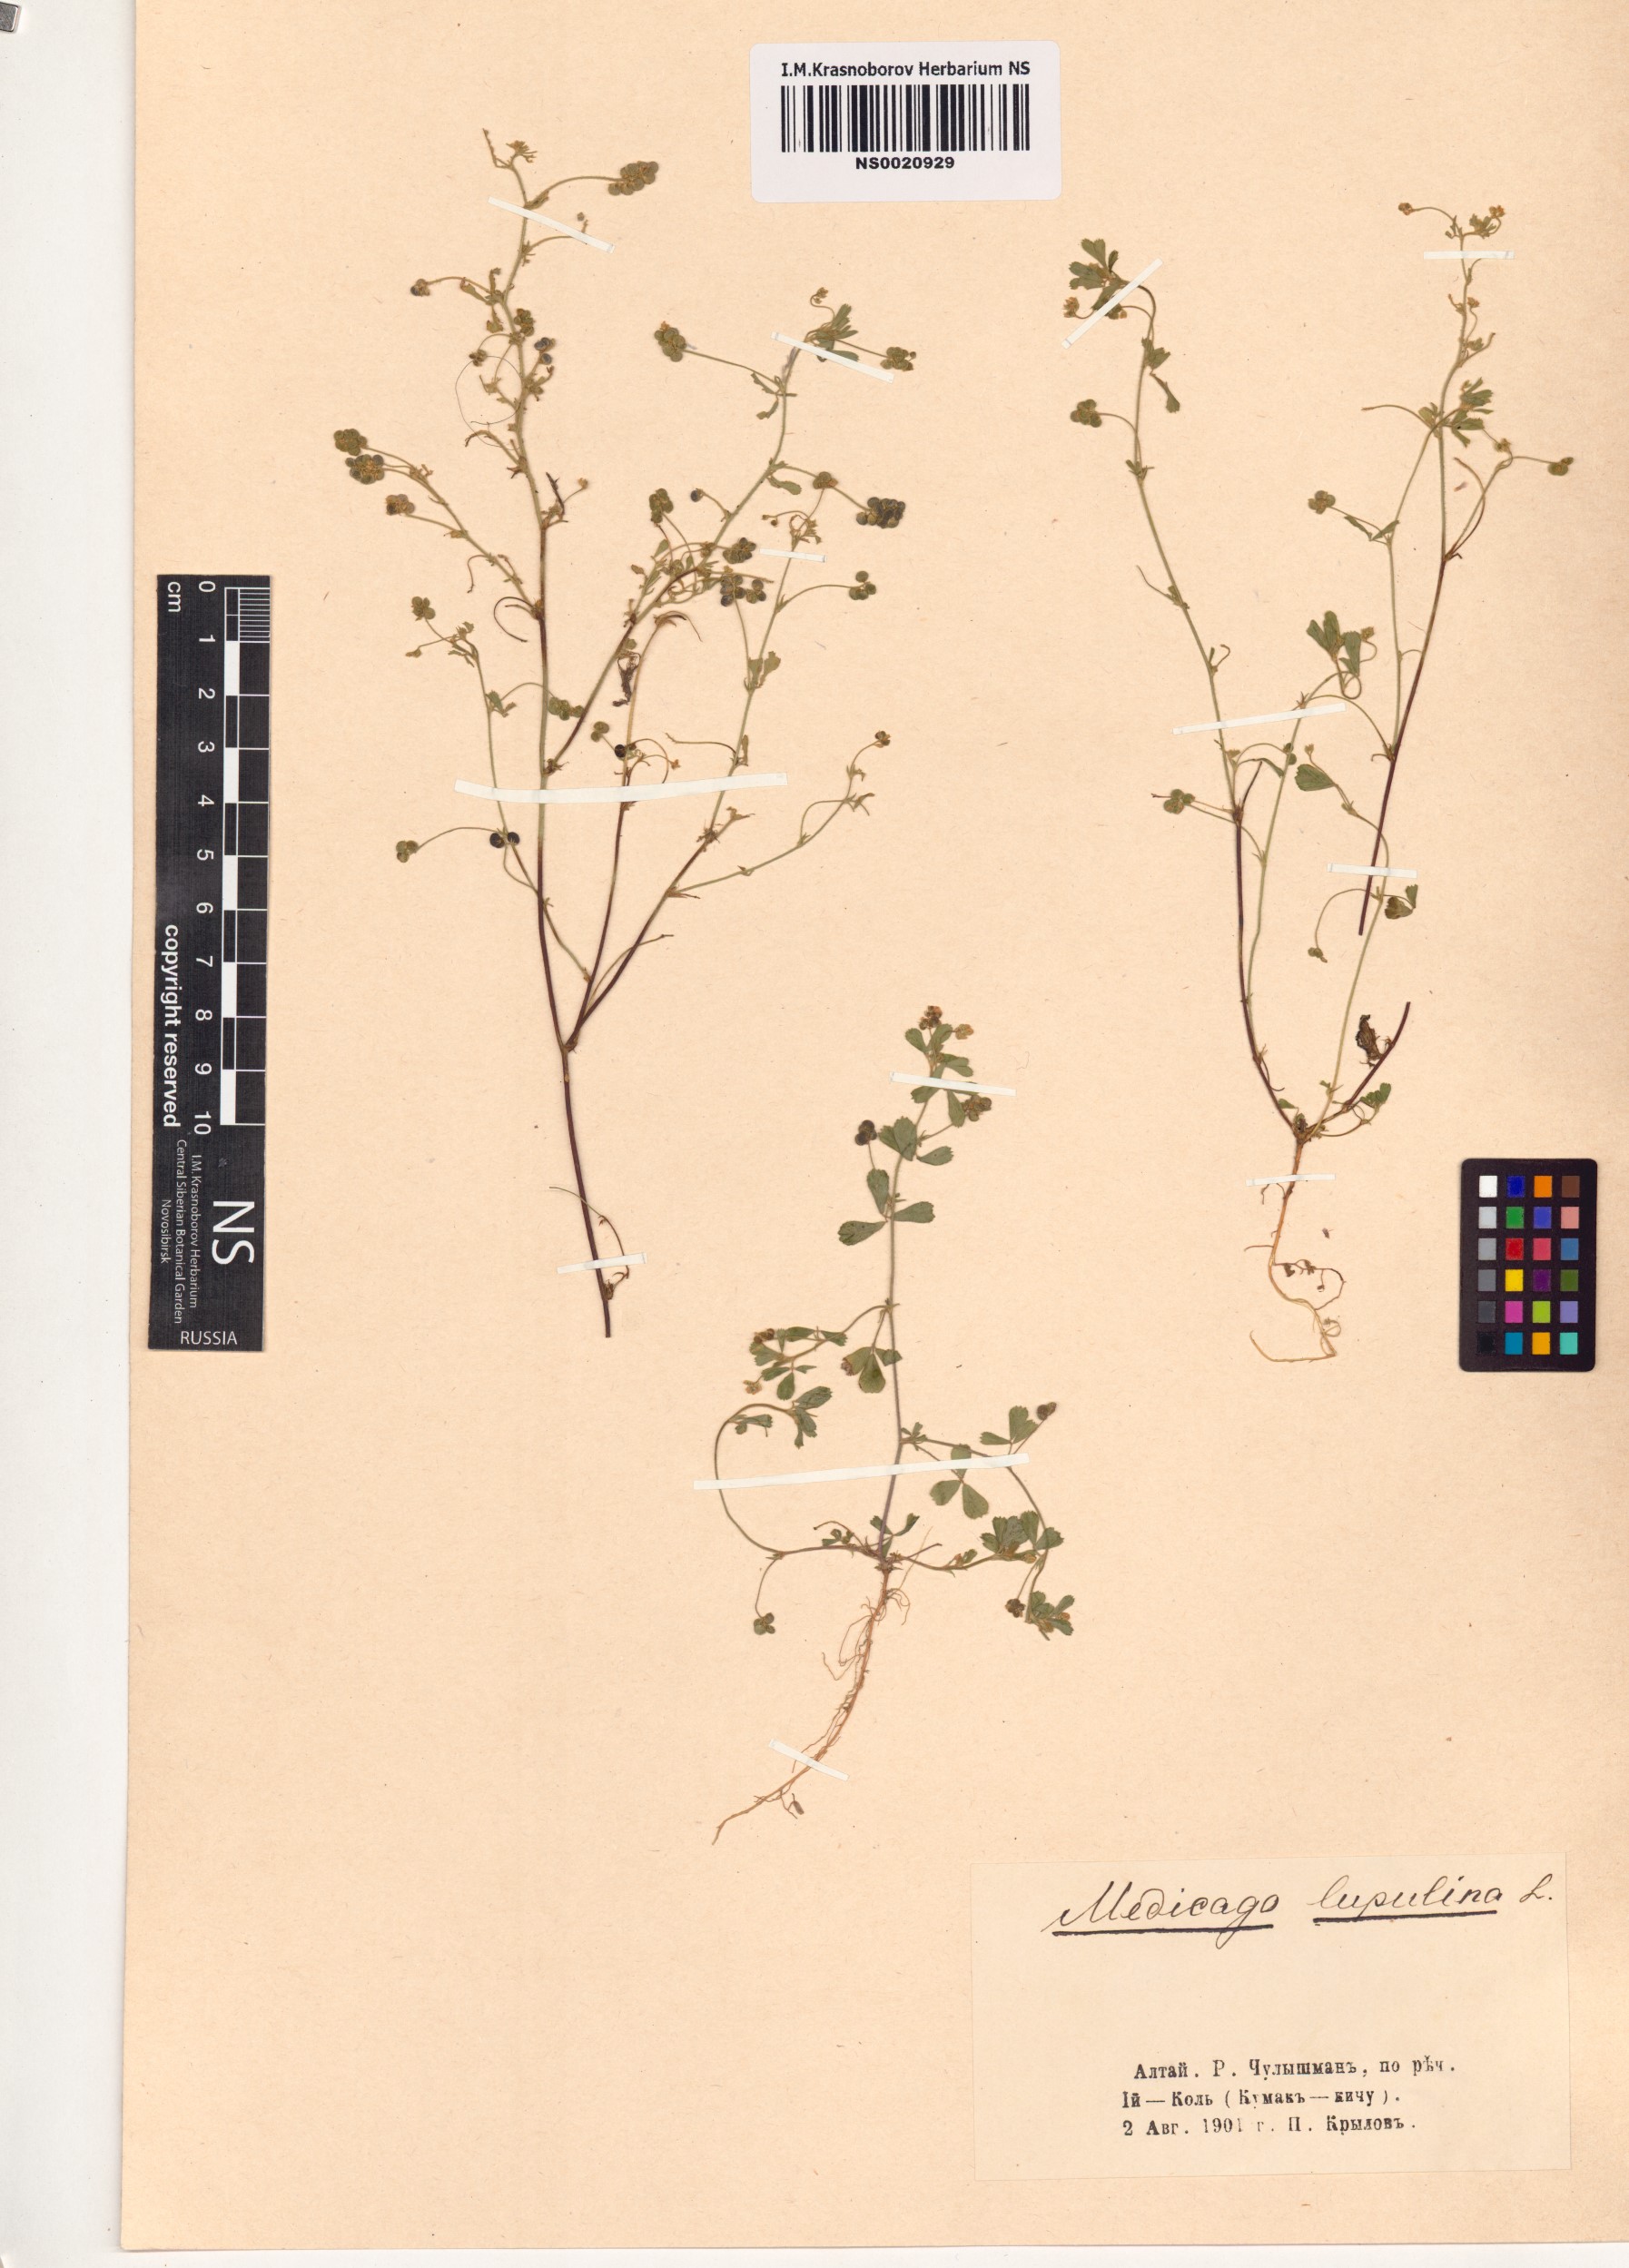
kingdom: Plantae
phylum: Tracheophyta
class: Magnoliopsida
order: Fabales
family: Fabaceae
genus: Medicago
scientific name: Medicago lupulina
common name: Black medick
